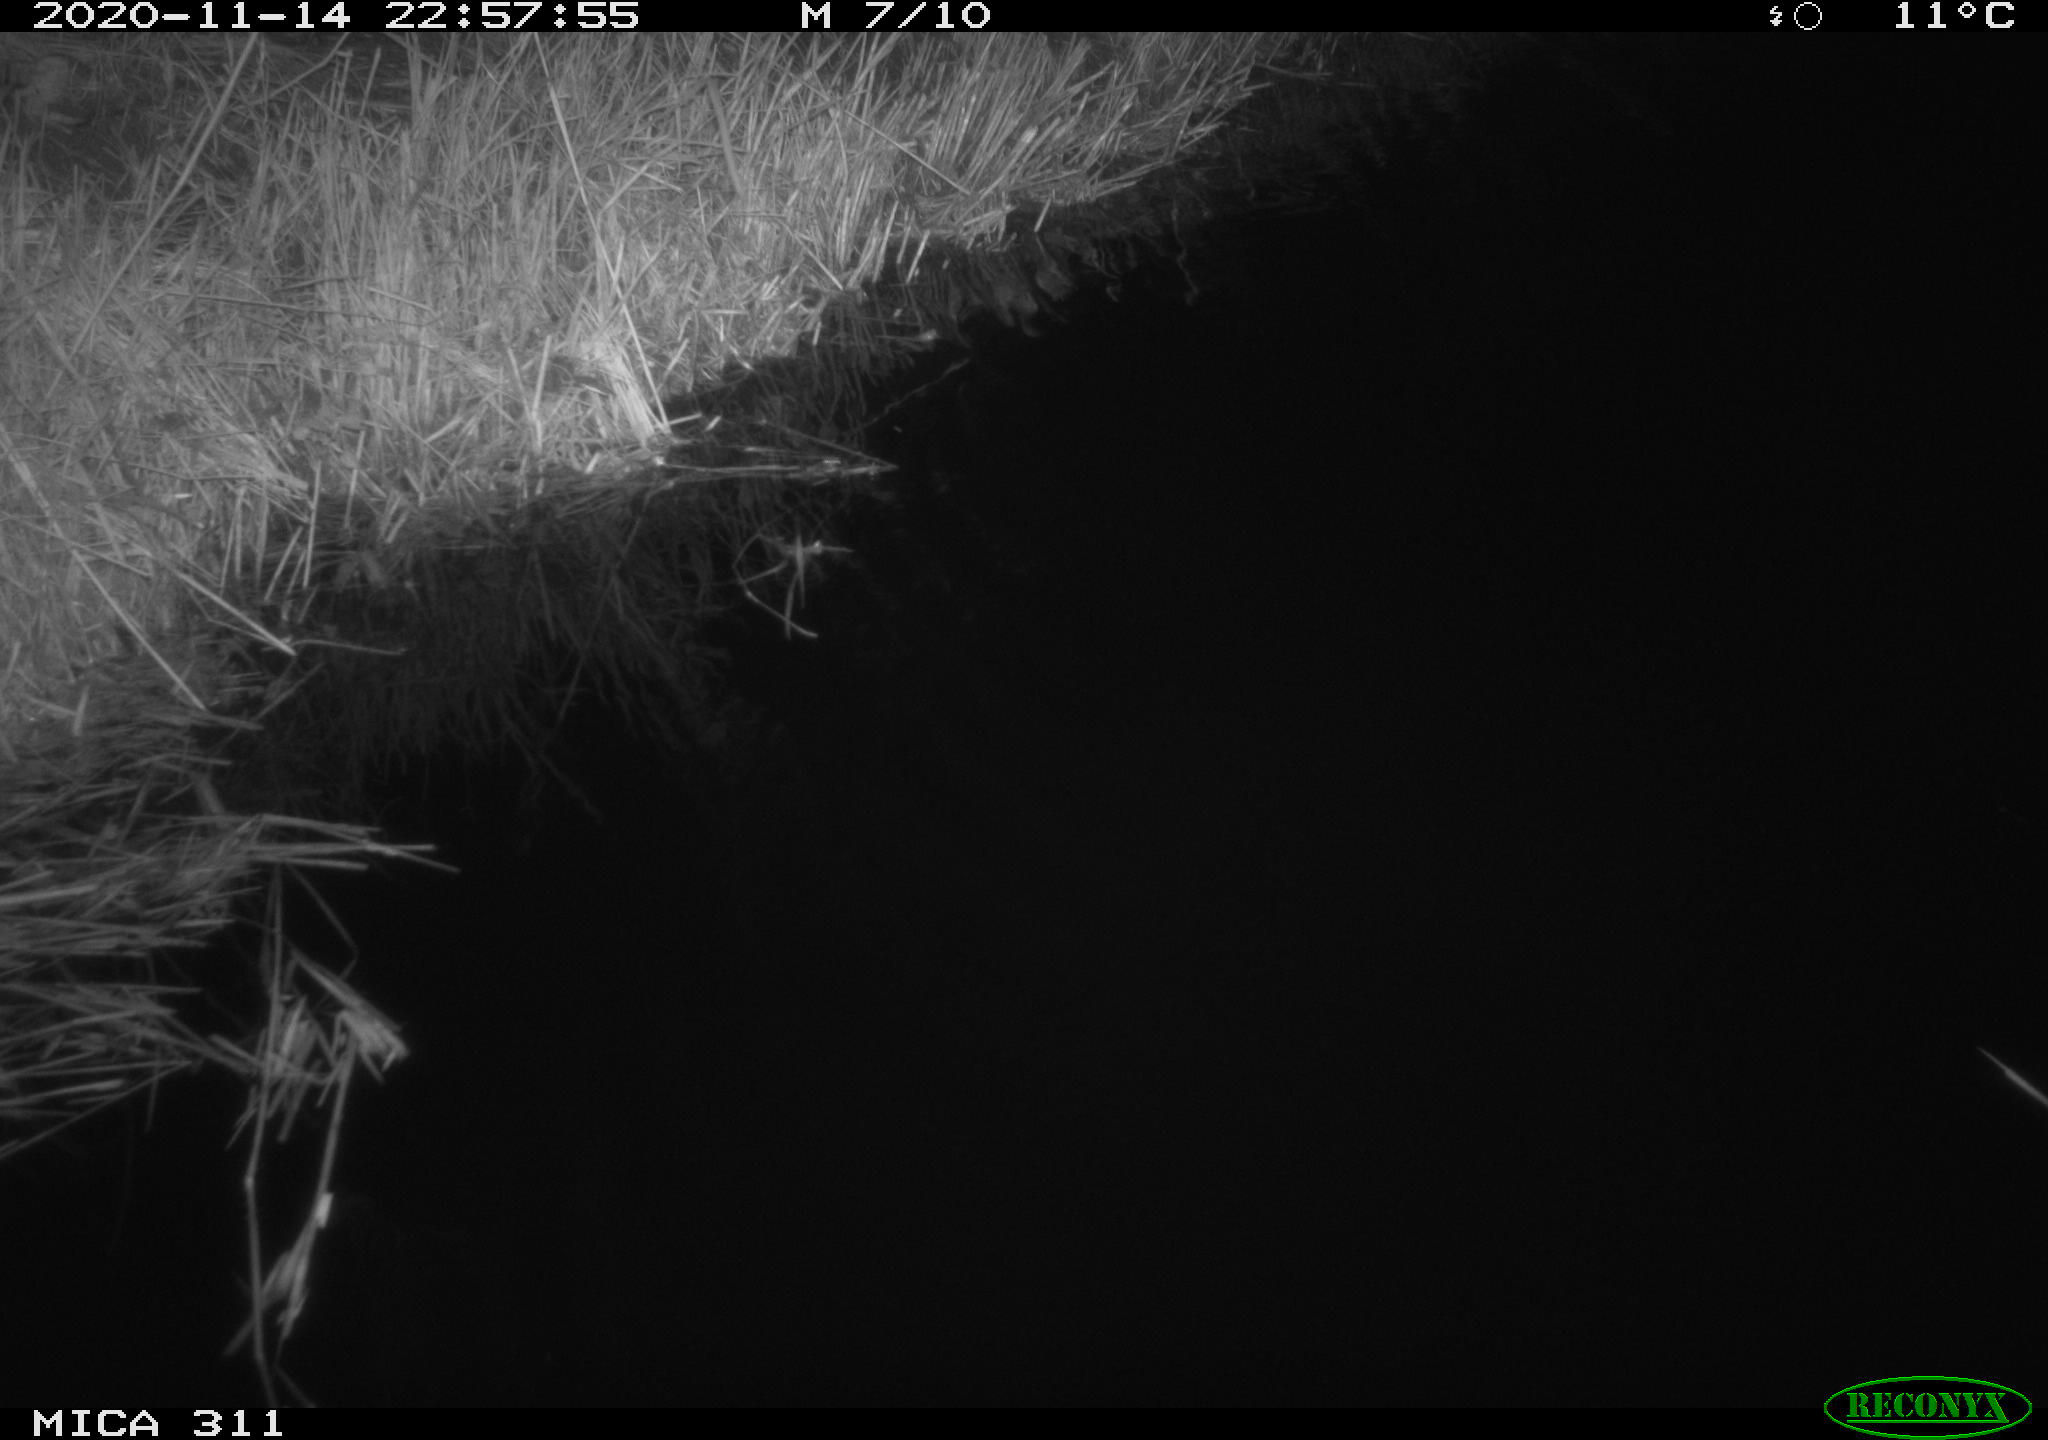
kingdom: Animalia
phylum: Chordata
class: Mammalia
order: Rodentia
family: Muridae
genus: Rattus
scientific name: Rattus norvegicus
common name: Brown rat
